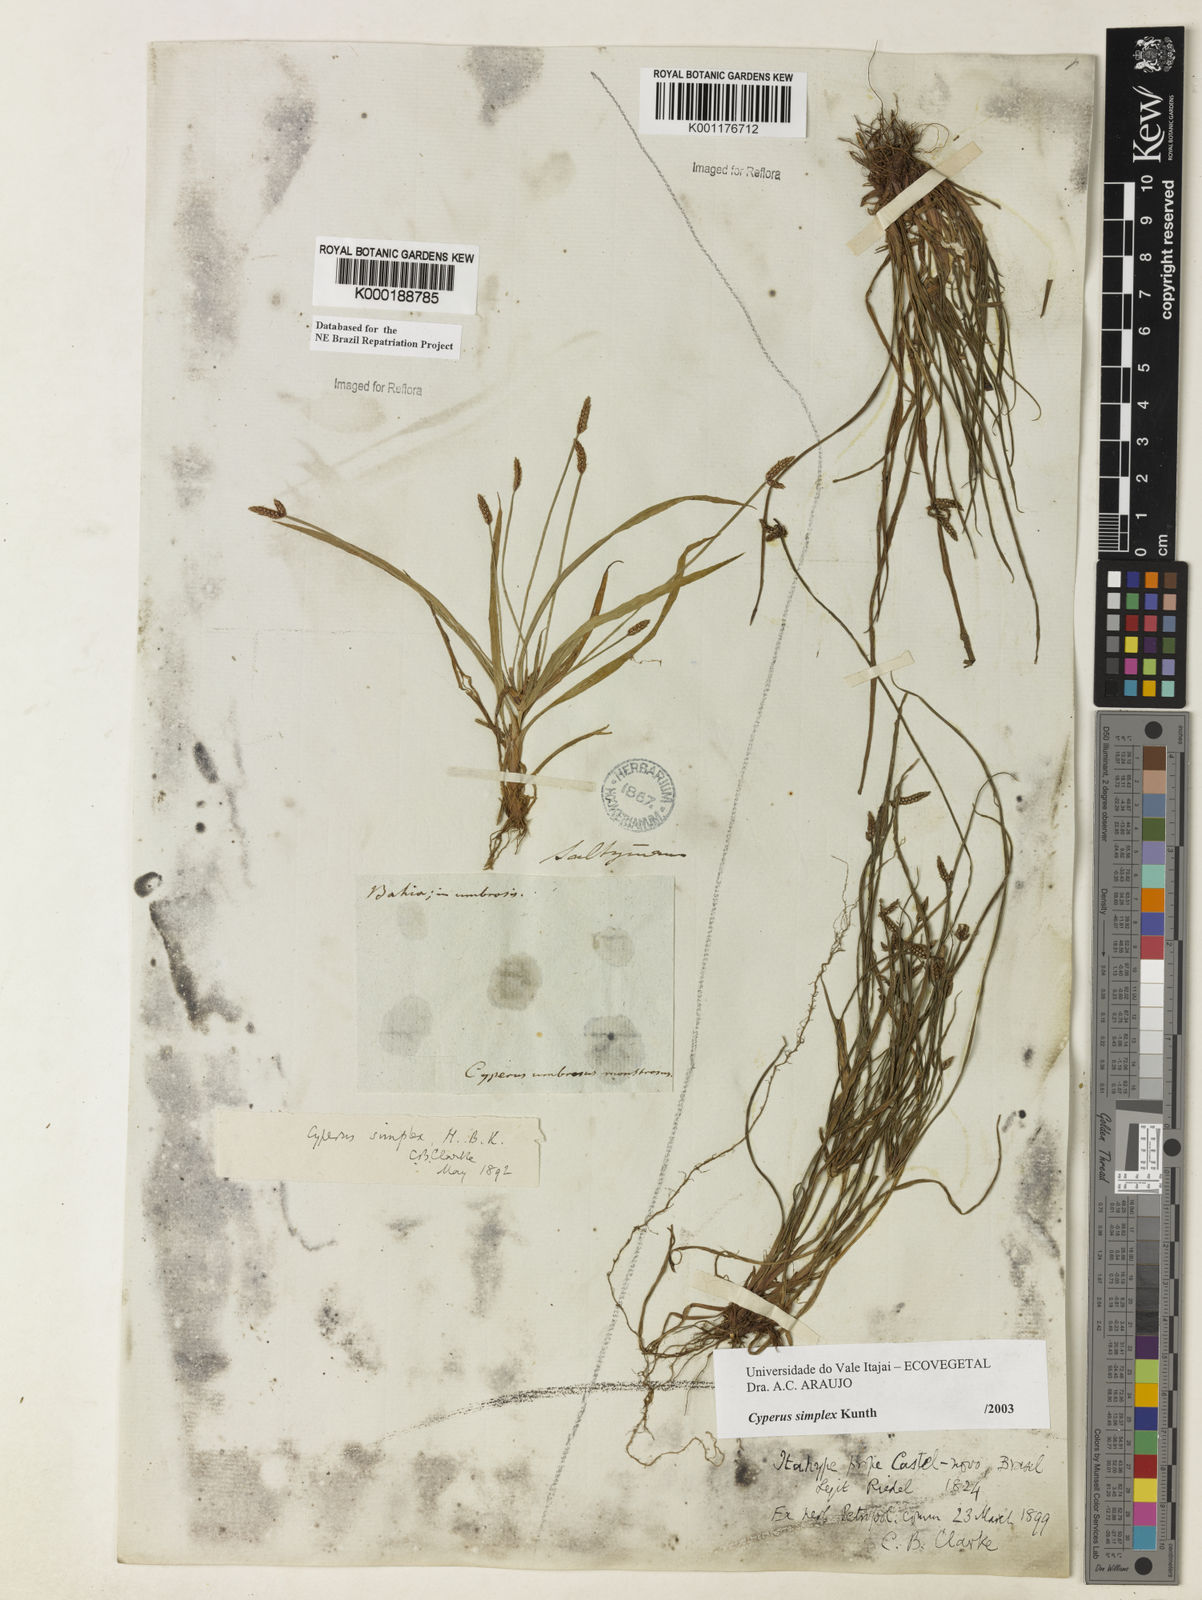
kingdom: Plantae
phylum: Tracheophyta
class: Liliopsida
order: Poales
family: Cyperaceae
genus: Cyperus
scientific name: Cyperus simplex
